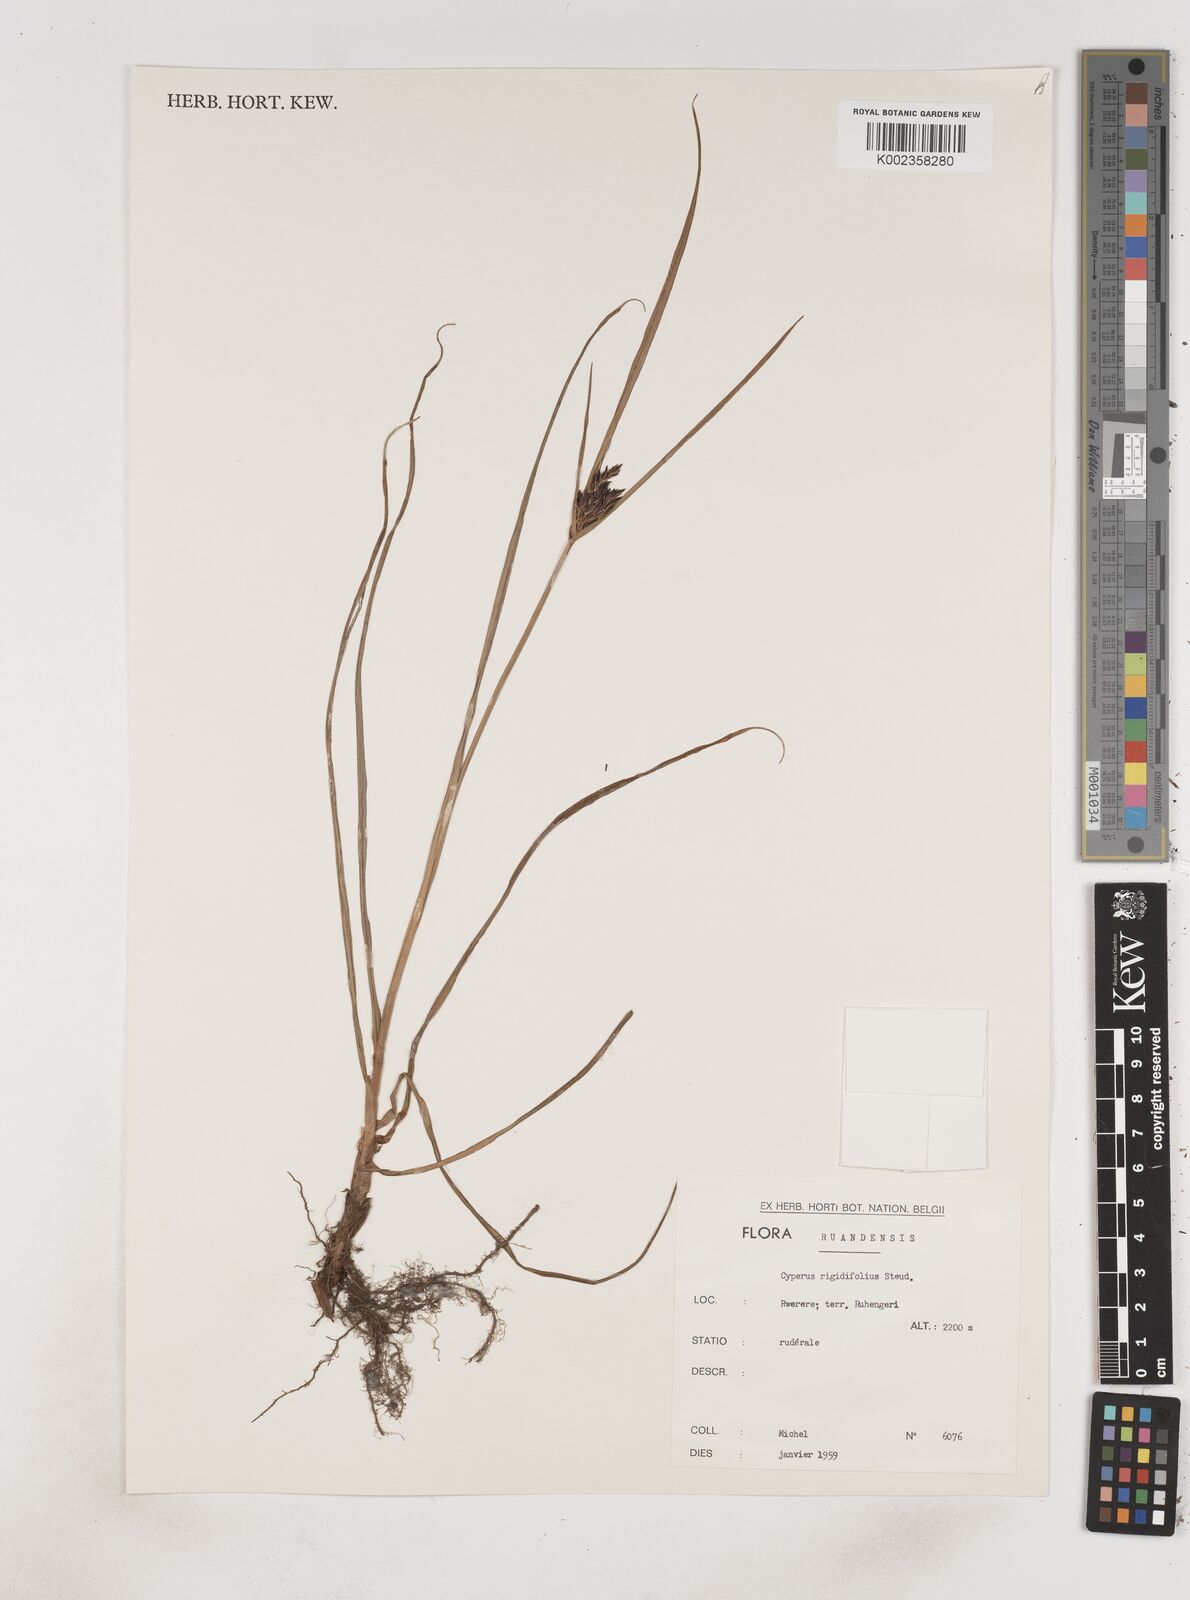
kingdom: Plantae
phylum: Tracheophyta
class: Liliopsida
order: Poales
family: Cyperaceae
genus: Cyperus
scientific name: Cyperus rigidifolius
